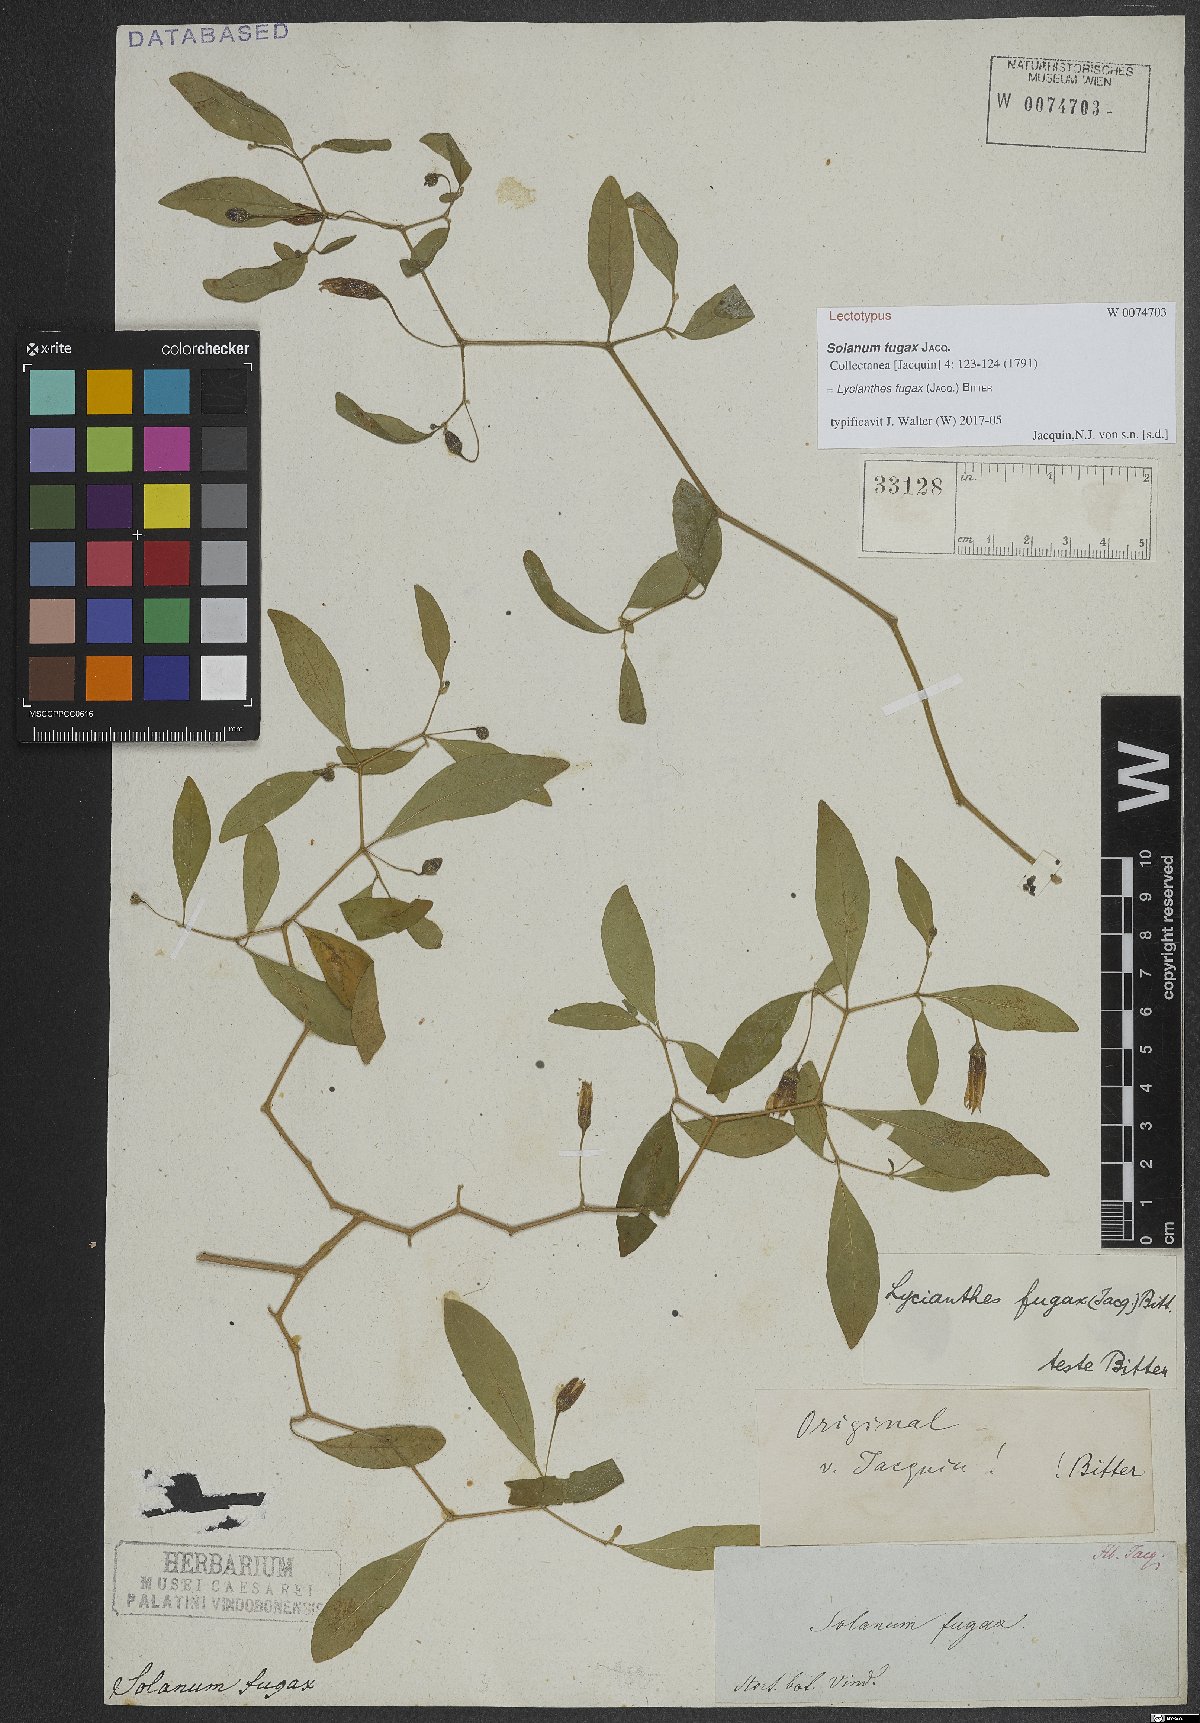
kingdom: Plantae
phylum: Tracheophyta
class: Magnoliopsida
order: Solanales
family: Solanaceae
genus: Lycianthes
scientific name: Lycianthes fugax
